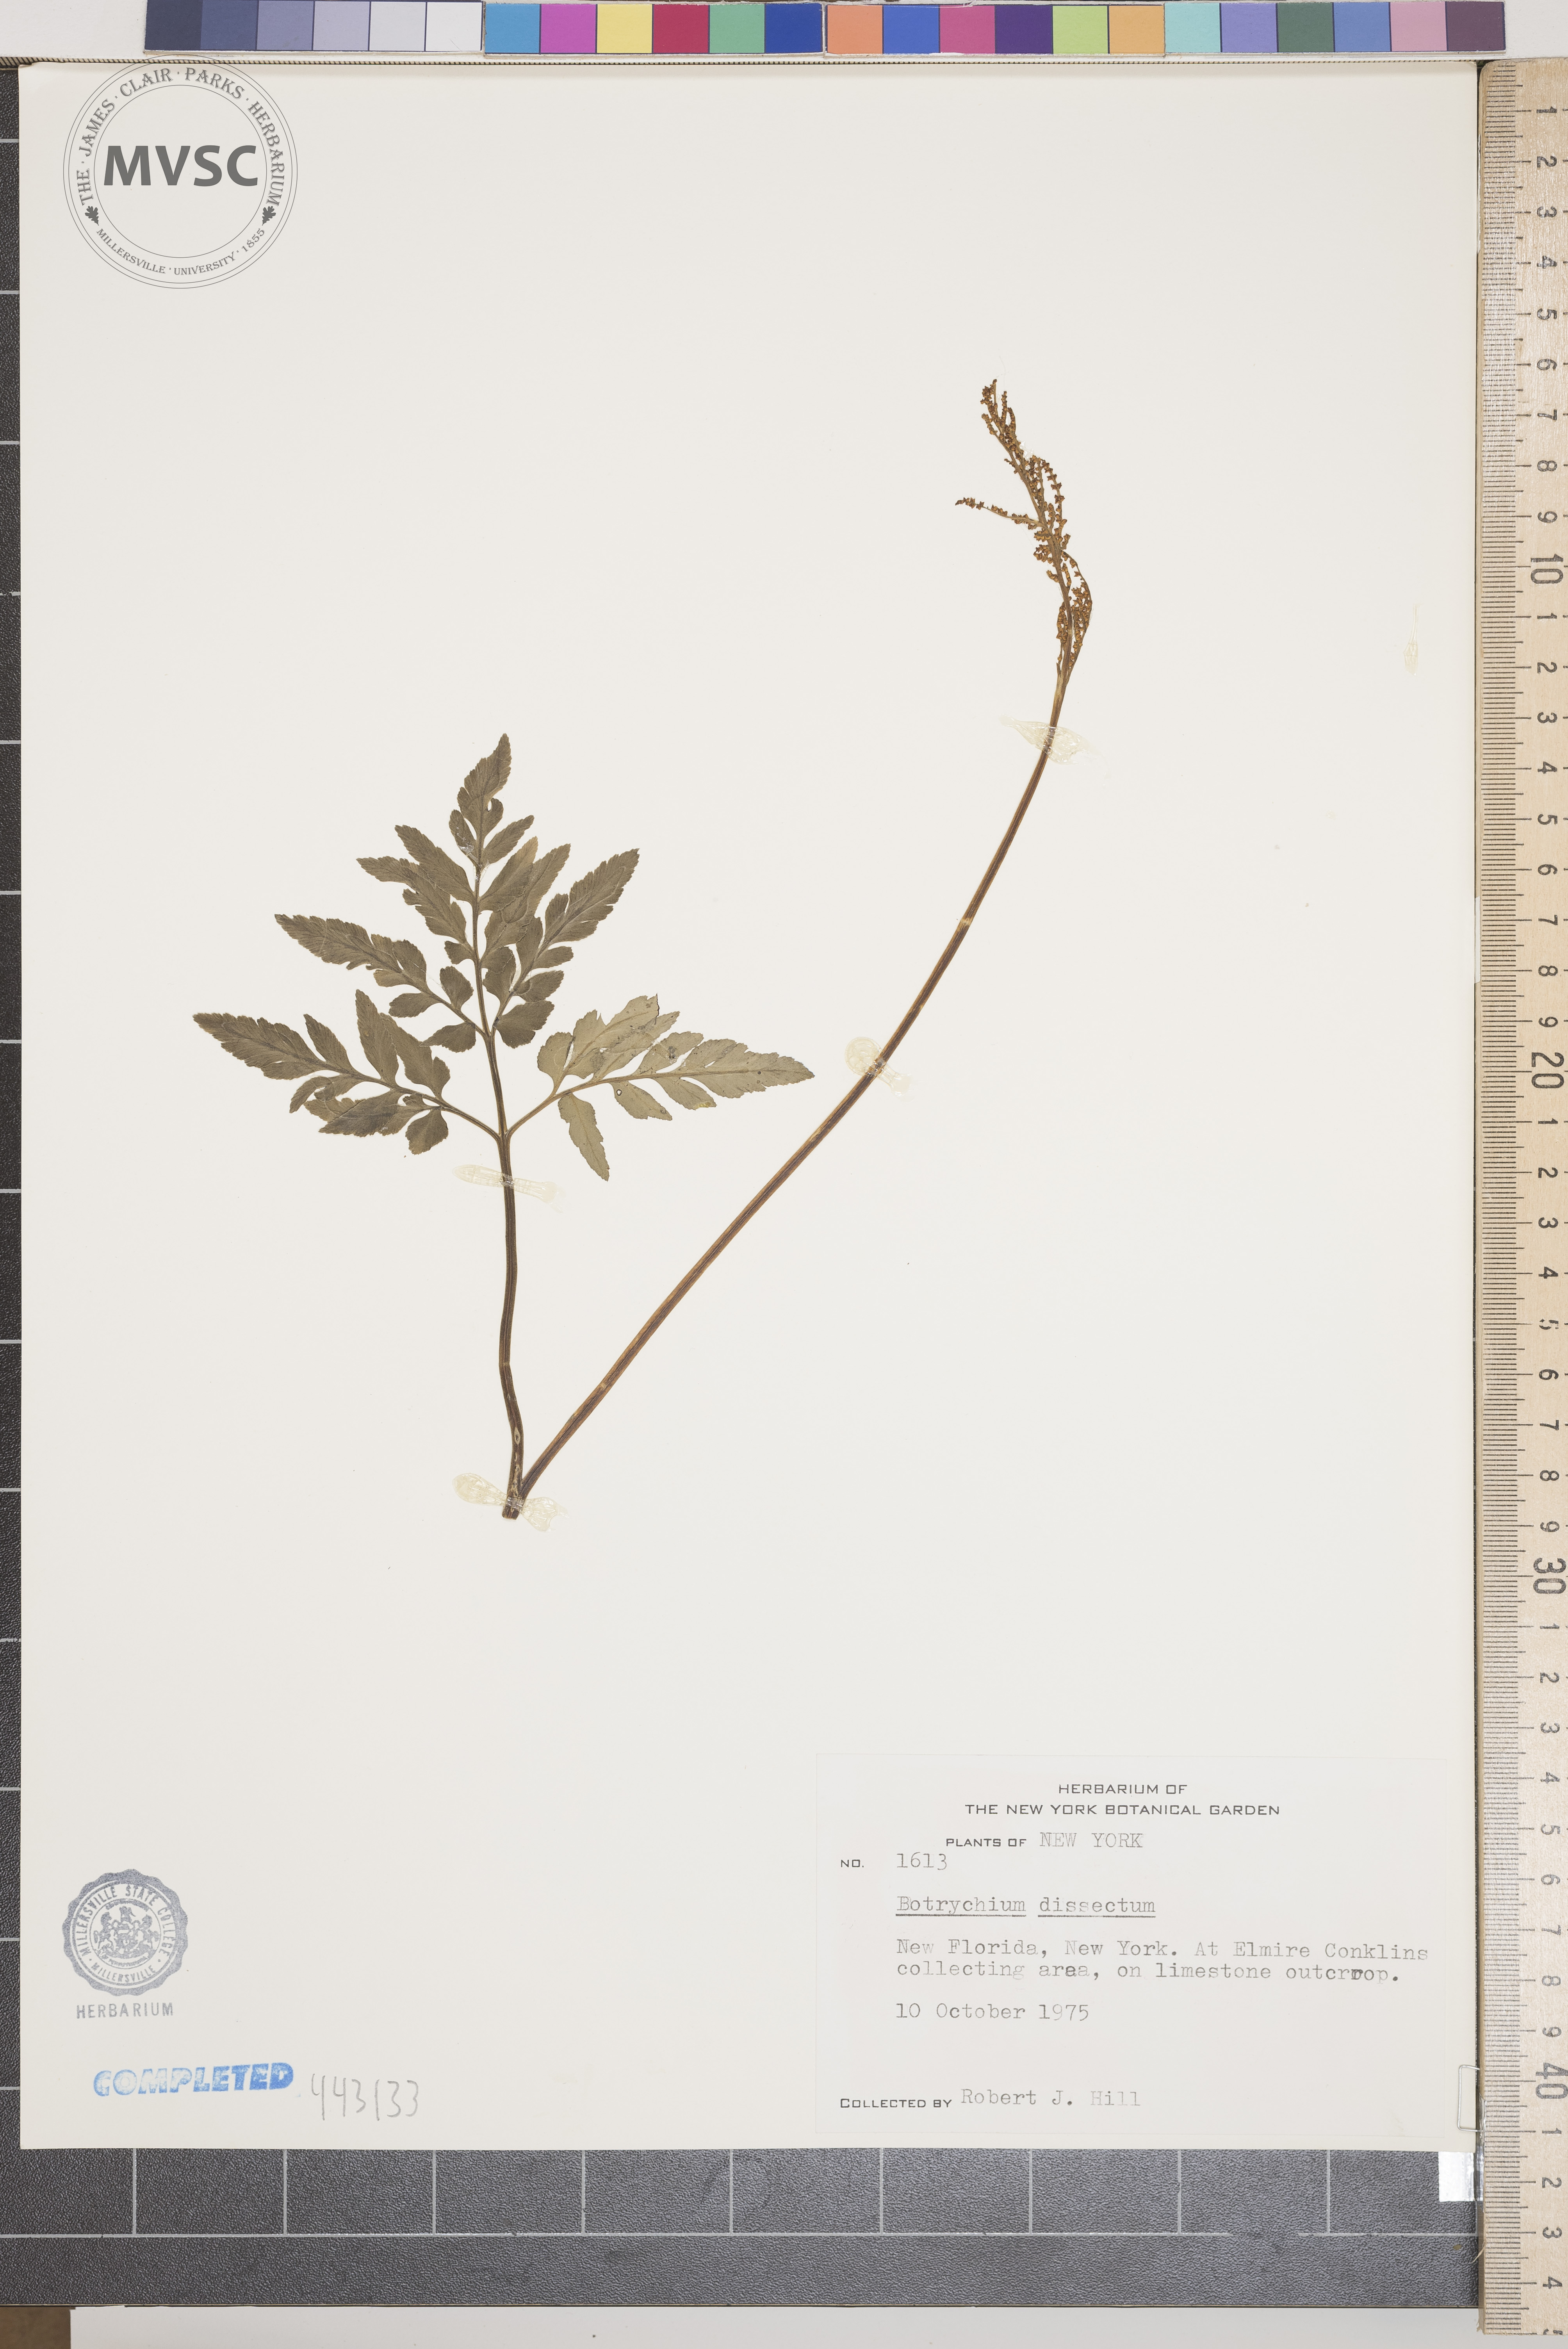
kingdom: Plantae
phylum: Tracheophyta
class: Polypodiopsida
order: Ophioglossales
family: Ophioglossaceae
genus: Sceptridium
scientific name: Sceptridium dissectum
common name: Cut-leaved grapefern
